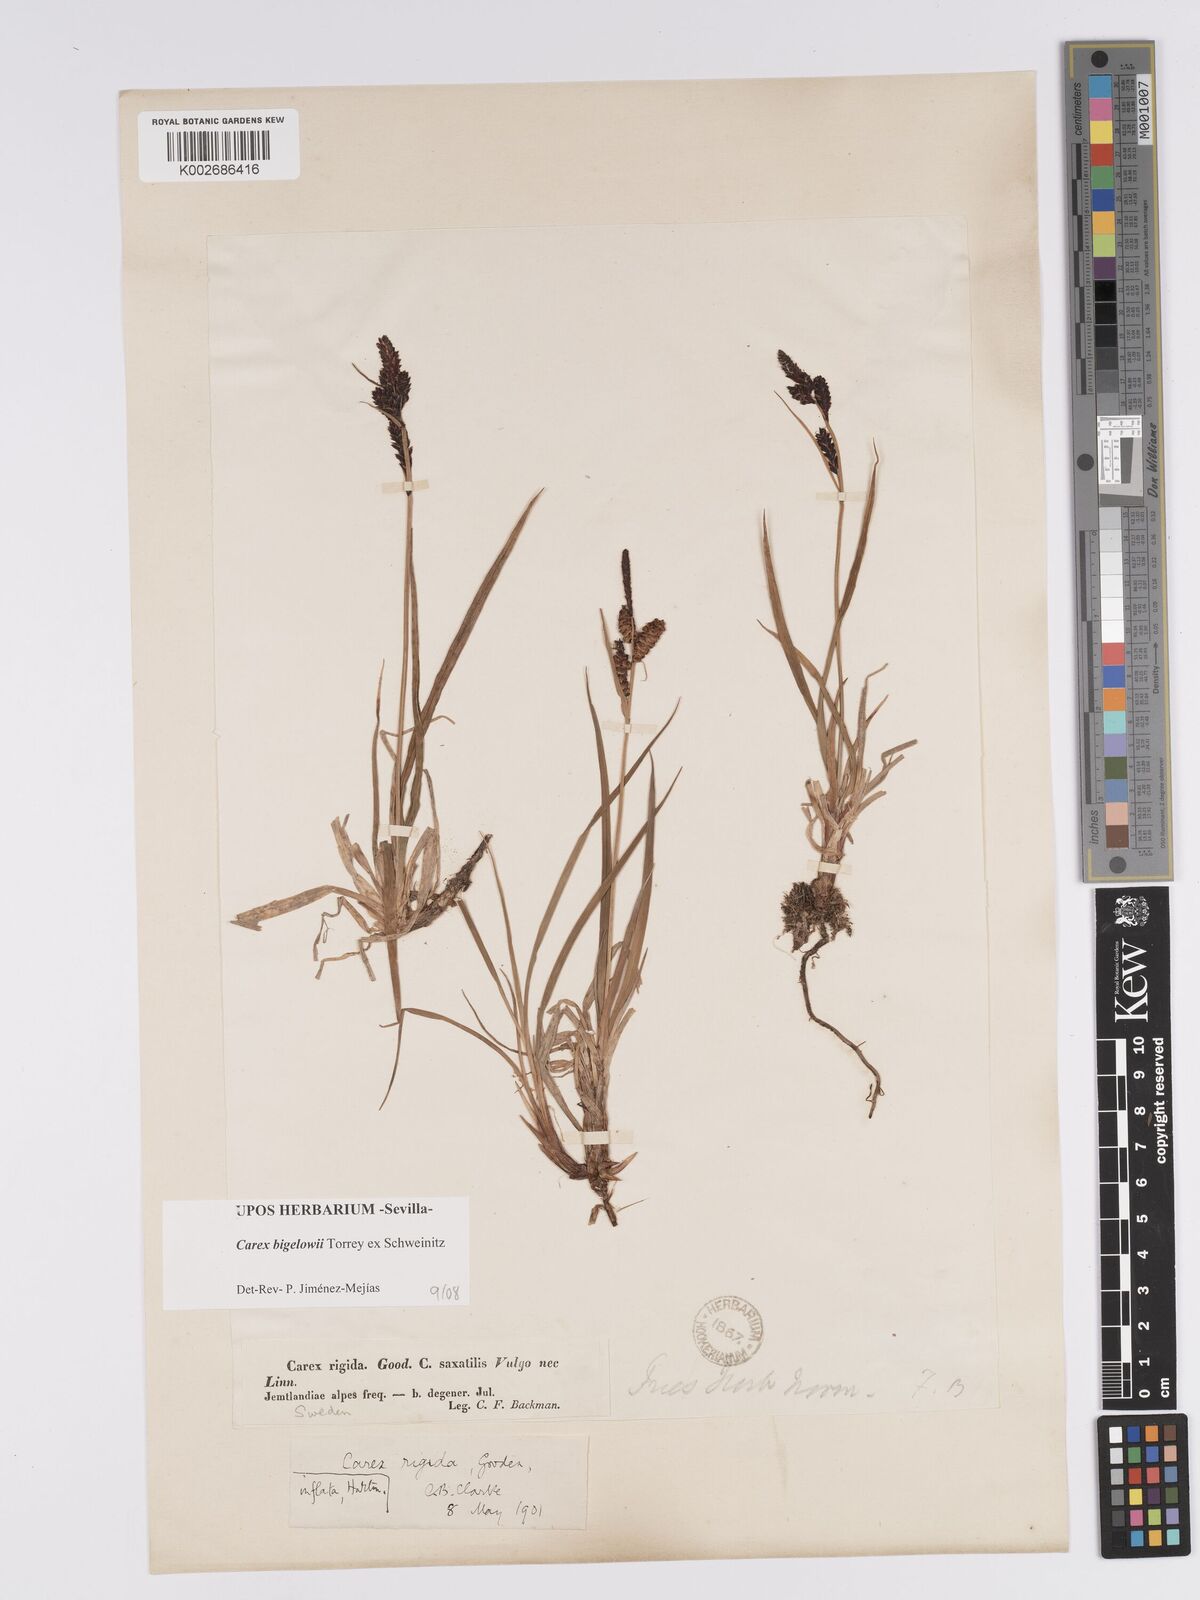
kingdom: Plantae
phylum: Tracheophyta
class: Liliopsida
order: Poales
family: Cyperaceae
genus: Carex
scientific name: Carex bigelowii
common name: Stiff sedge
